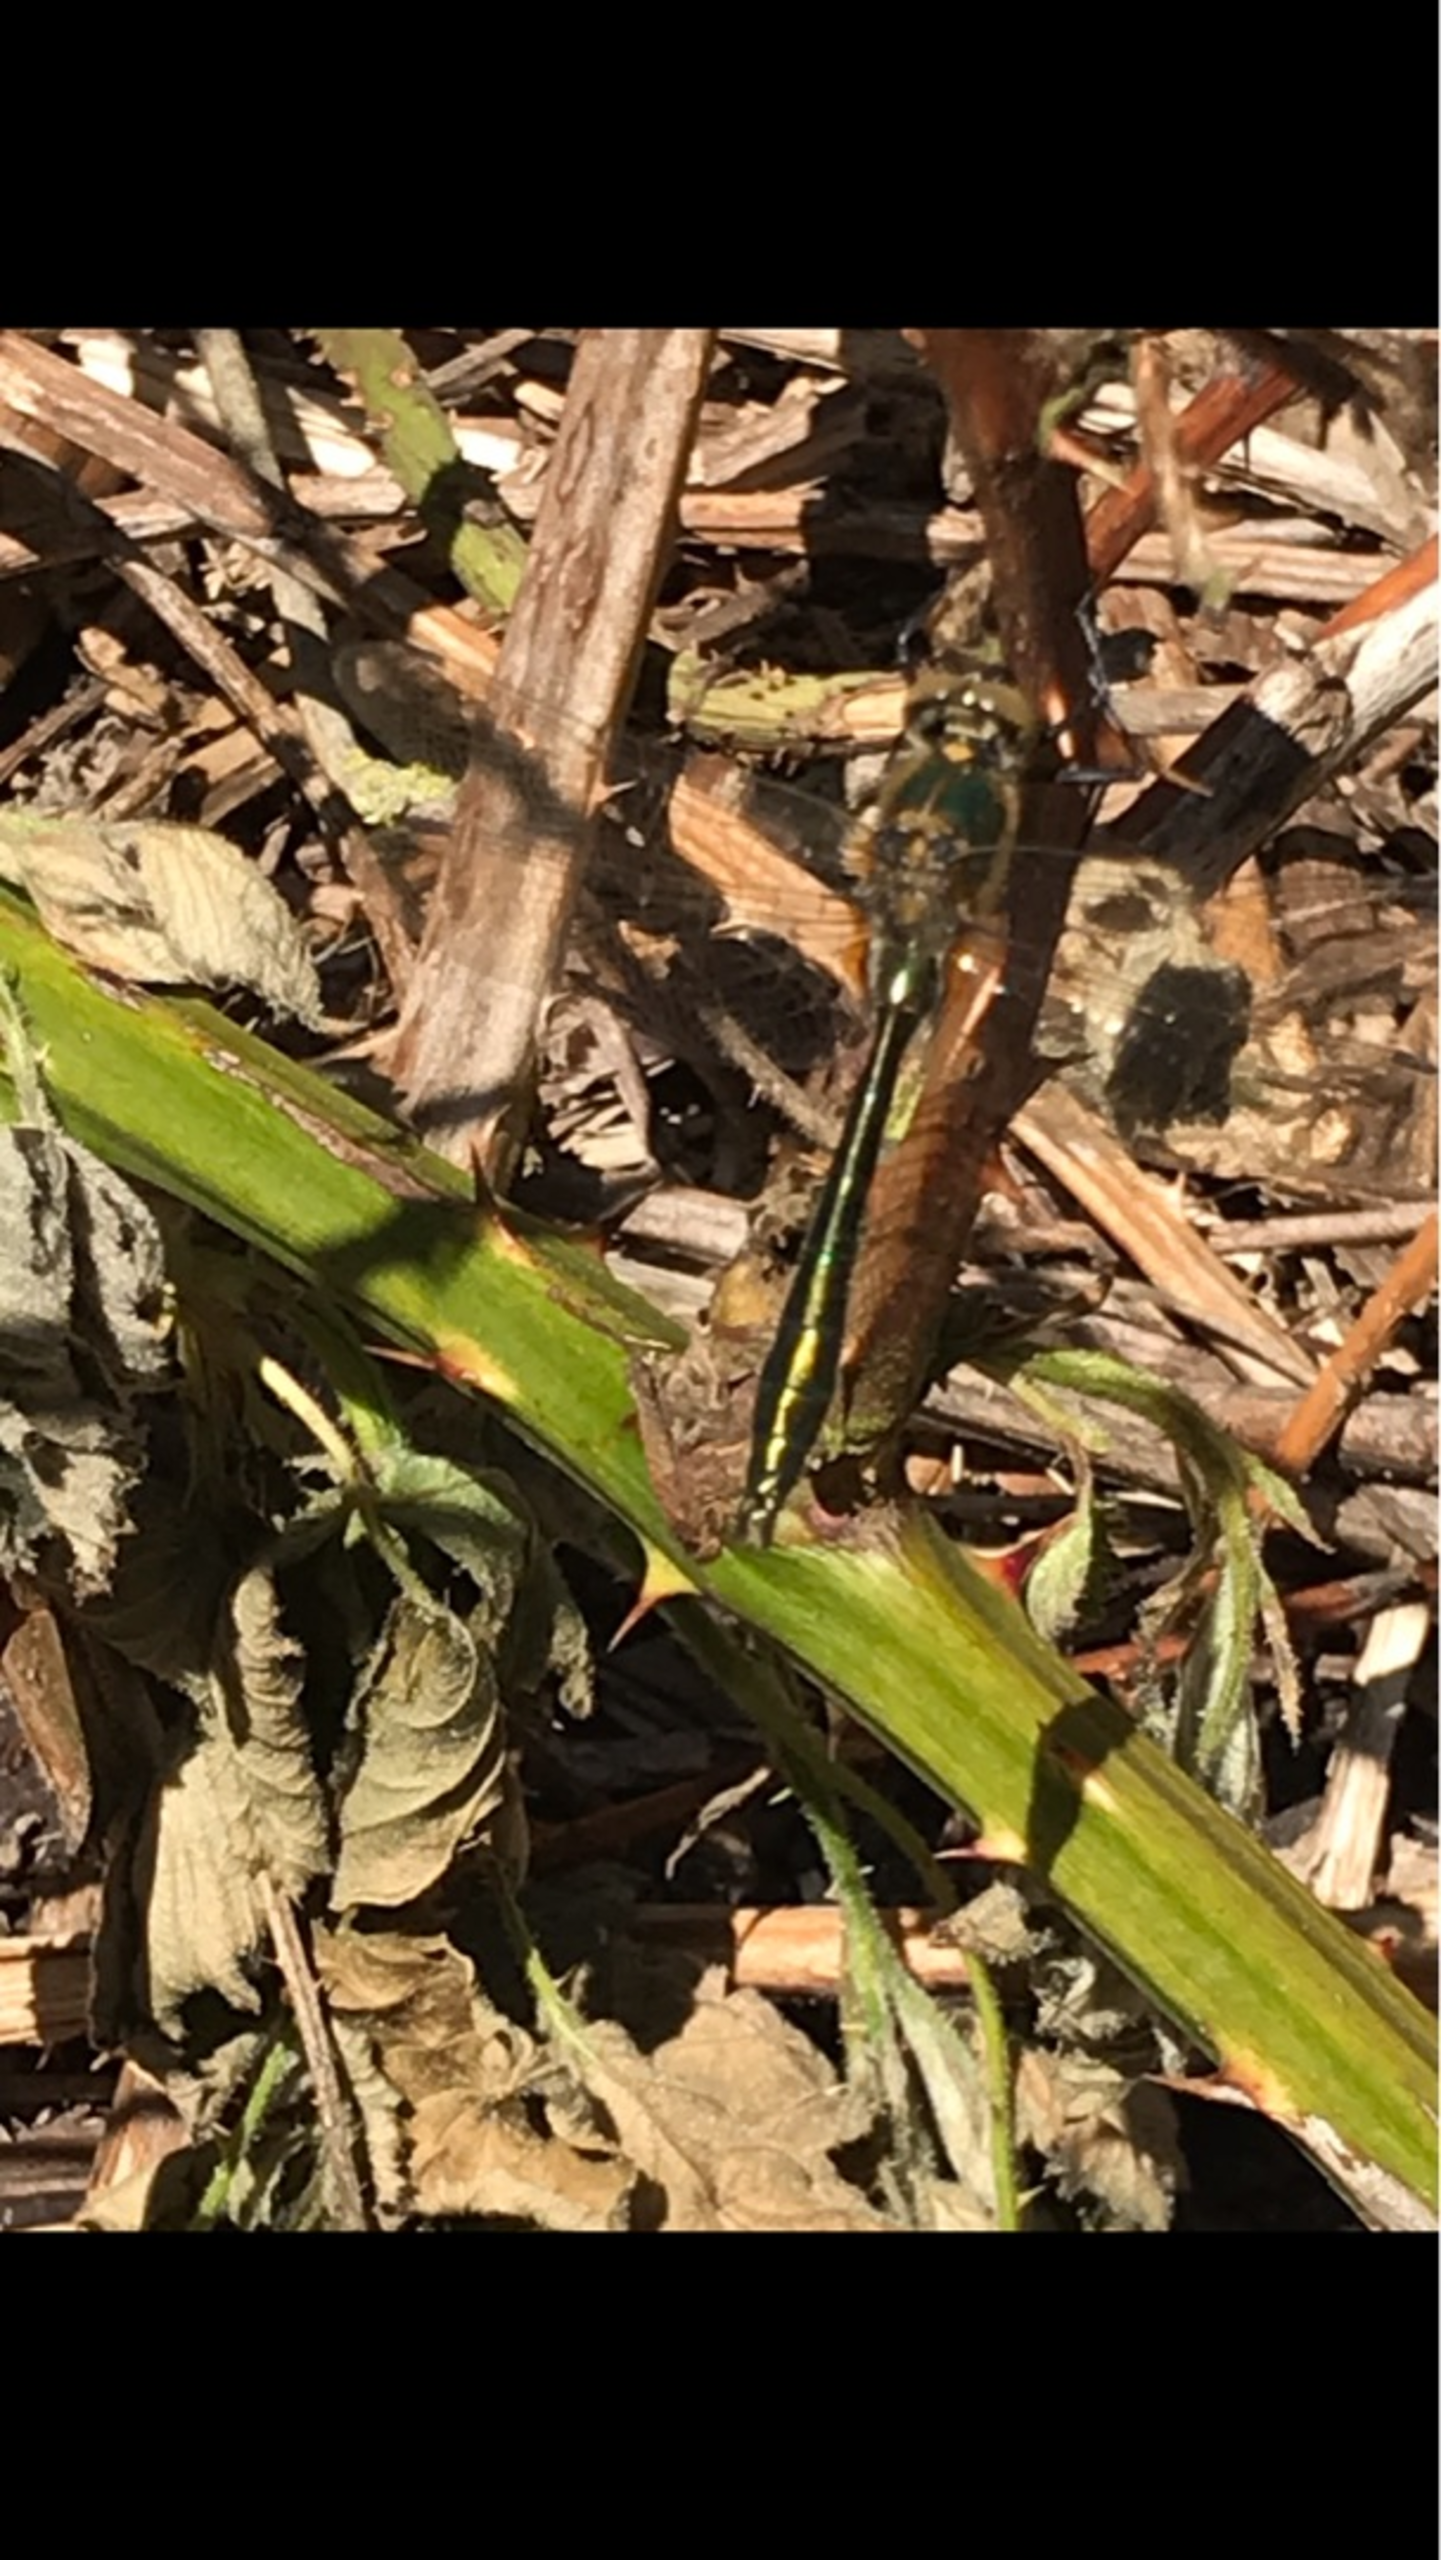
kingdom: Animalia
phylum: Arthropoda
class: Insecta
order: Odonata
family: Corduliidae
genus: Cordulia
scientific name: Cordulia aenea
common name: Grøn smaragdlibel
